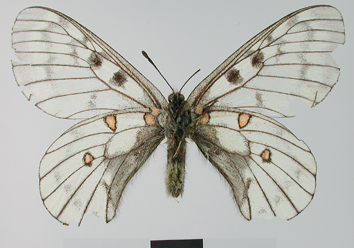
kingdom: Animalia
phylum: Arthropoda
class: Insecta
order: Lepidoptera
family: Papilionidae
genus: Parnassius
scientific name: Parnassius bremeri
